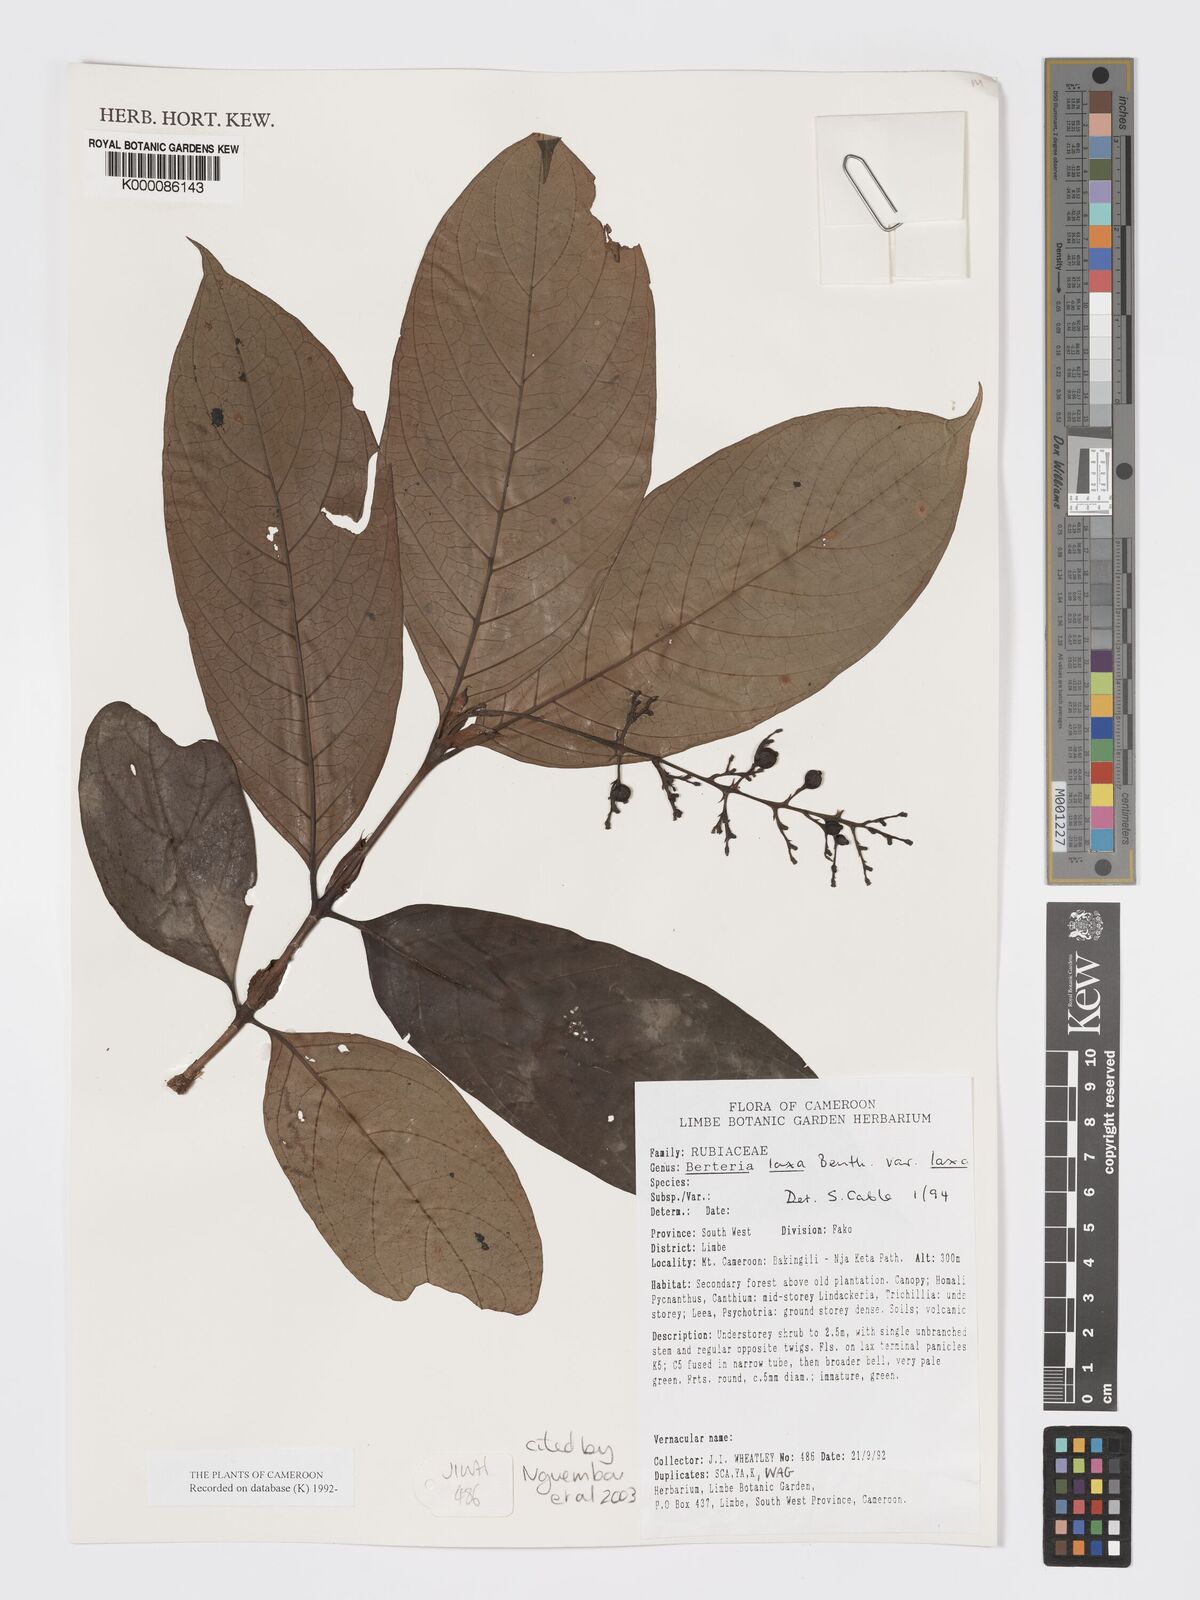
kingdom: Plantae
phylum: Tracheophyta
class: Magnoliopsida
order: Gentianales
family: Rubiaceae
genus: Bertiera
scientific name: Bertiera laxa
